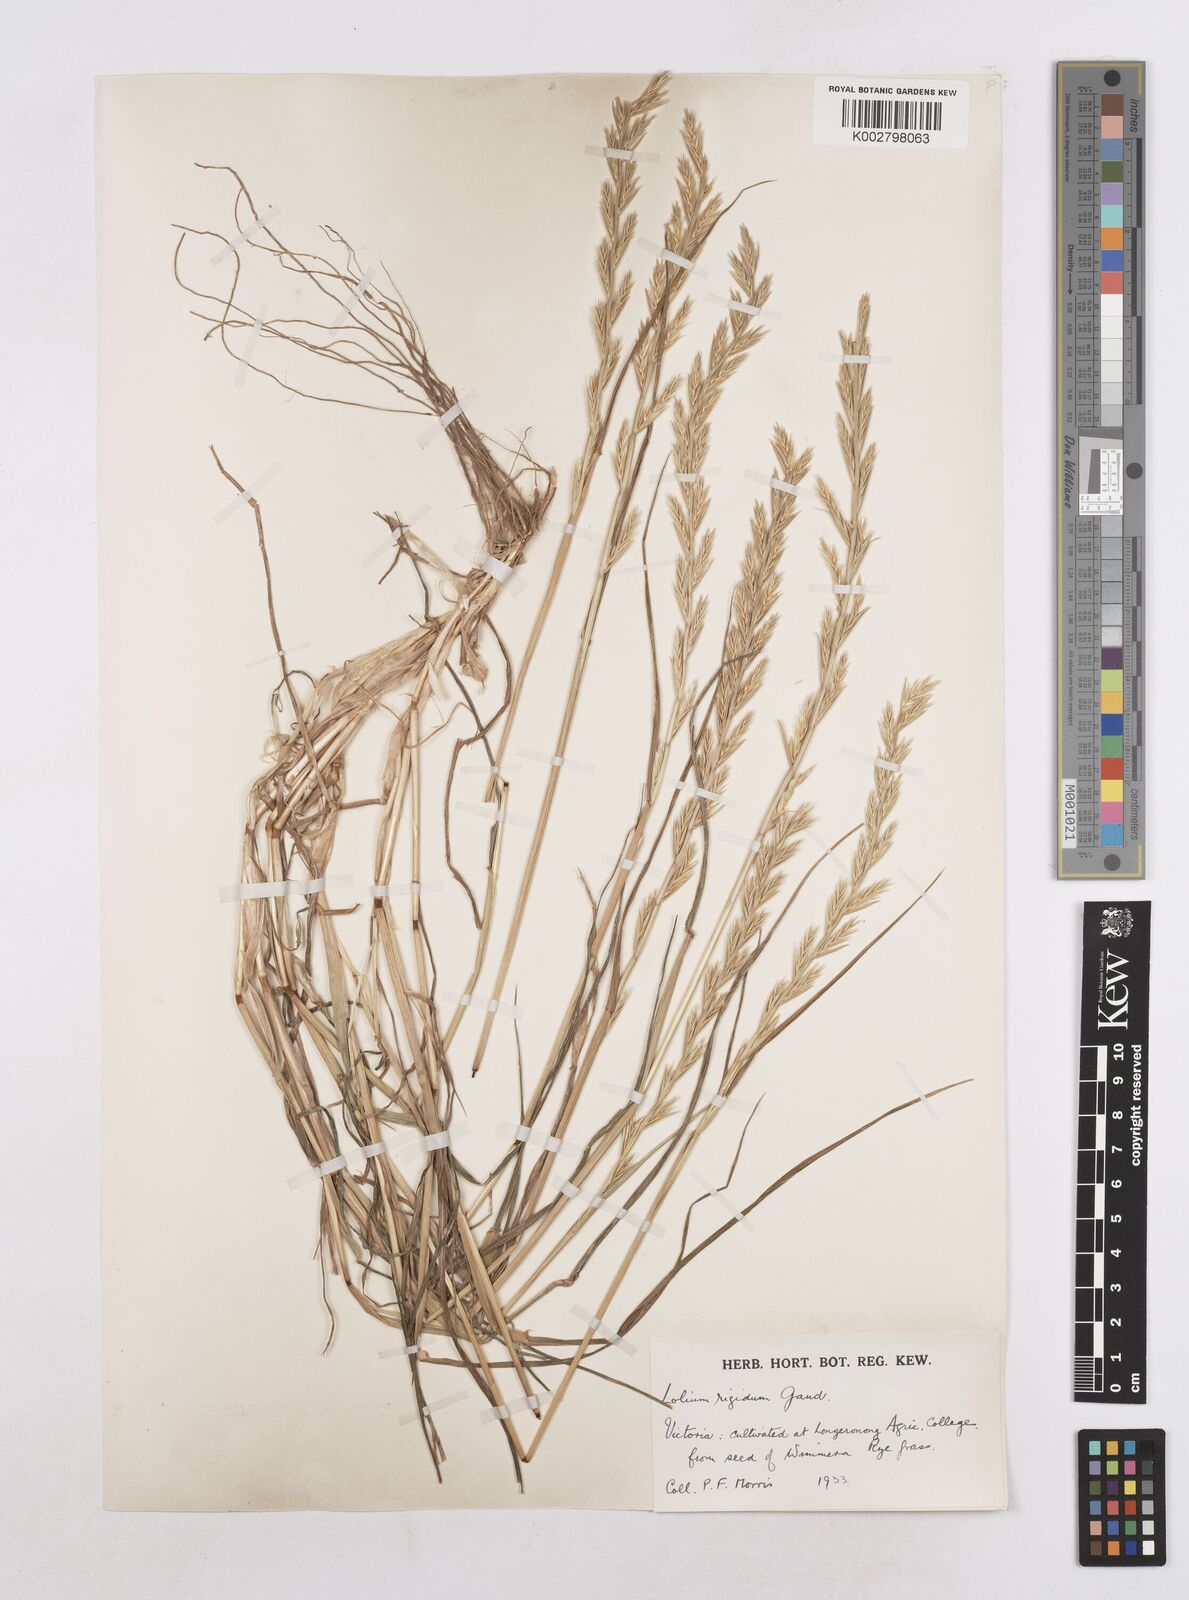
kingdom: Plantae
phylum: Tracheophyta
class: Liliopsida
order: Poales
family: Poaceae
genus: Lolium
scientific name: Lolium rigidum
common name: Wimmera ryegrass
